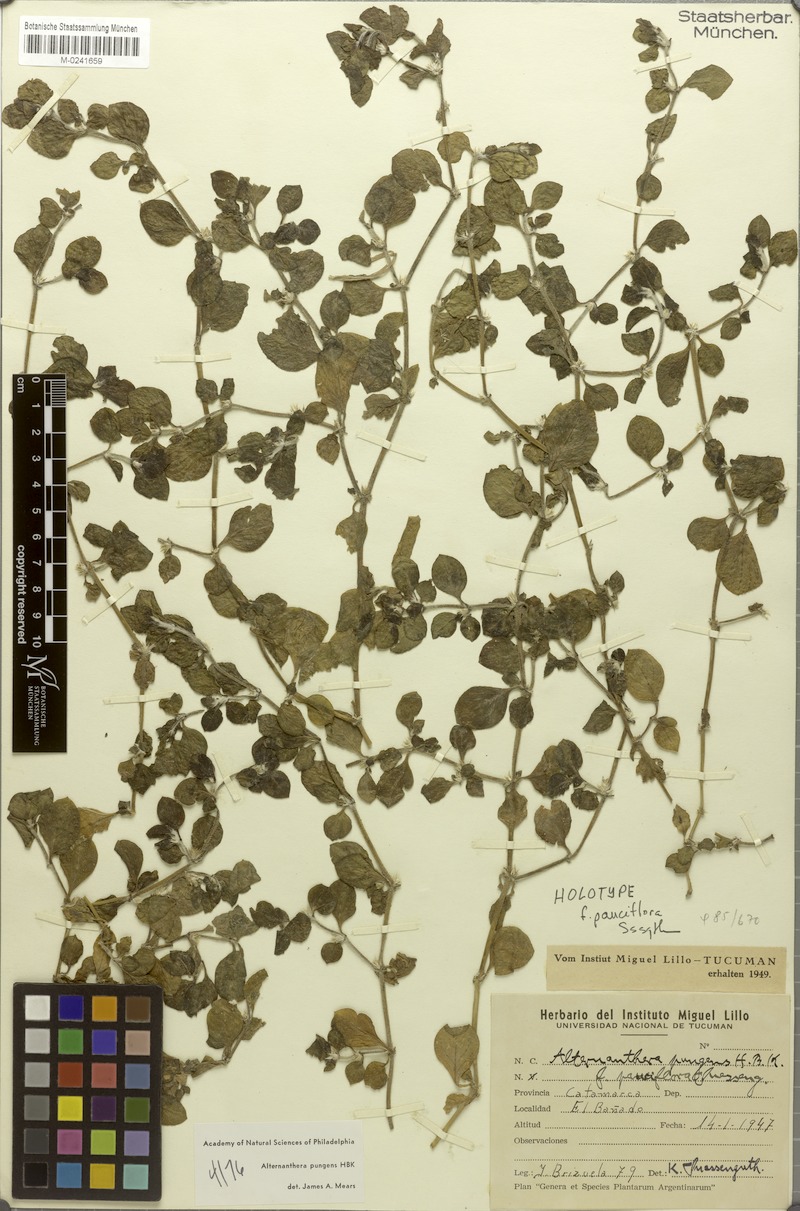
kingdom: Plantae
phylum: Tracheophyta
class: Magnoliopsida
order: Caryophyllales
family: Amaranthaceae
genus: Alternanthera
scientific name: Alternanthera pungens
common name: Khakiweed
